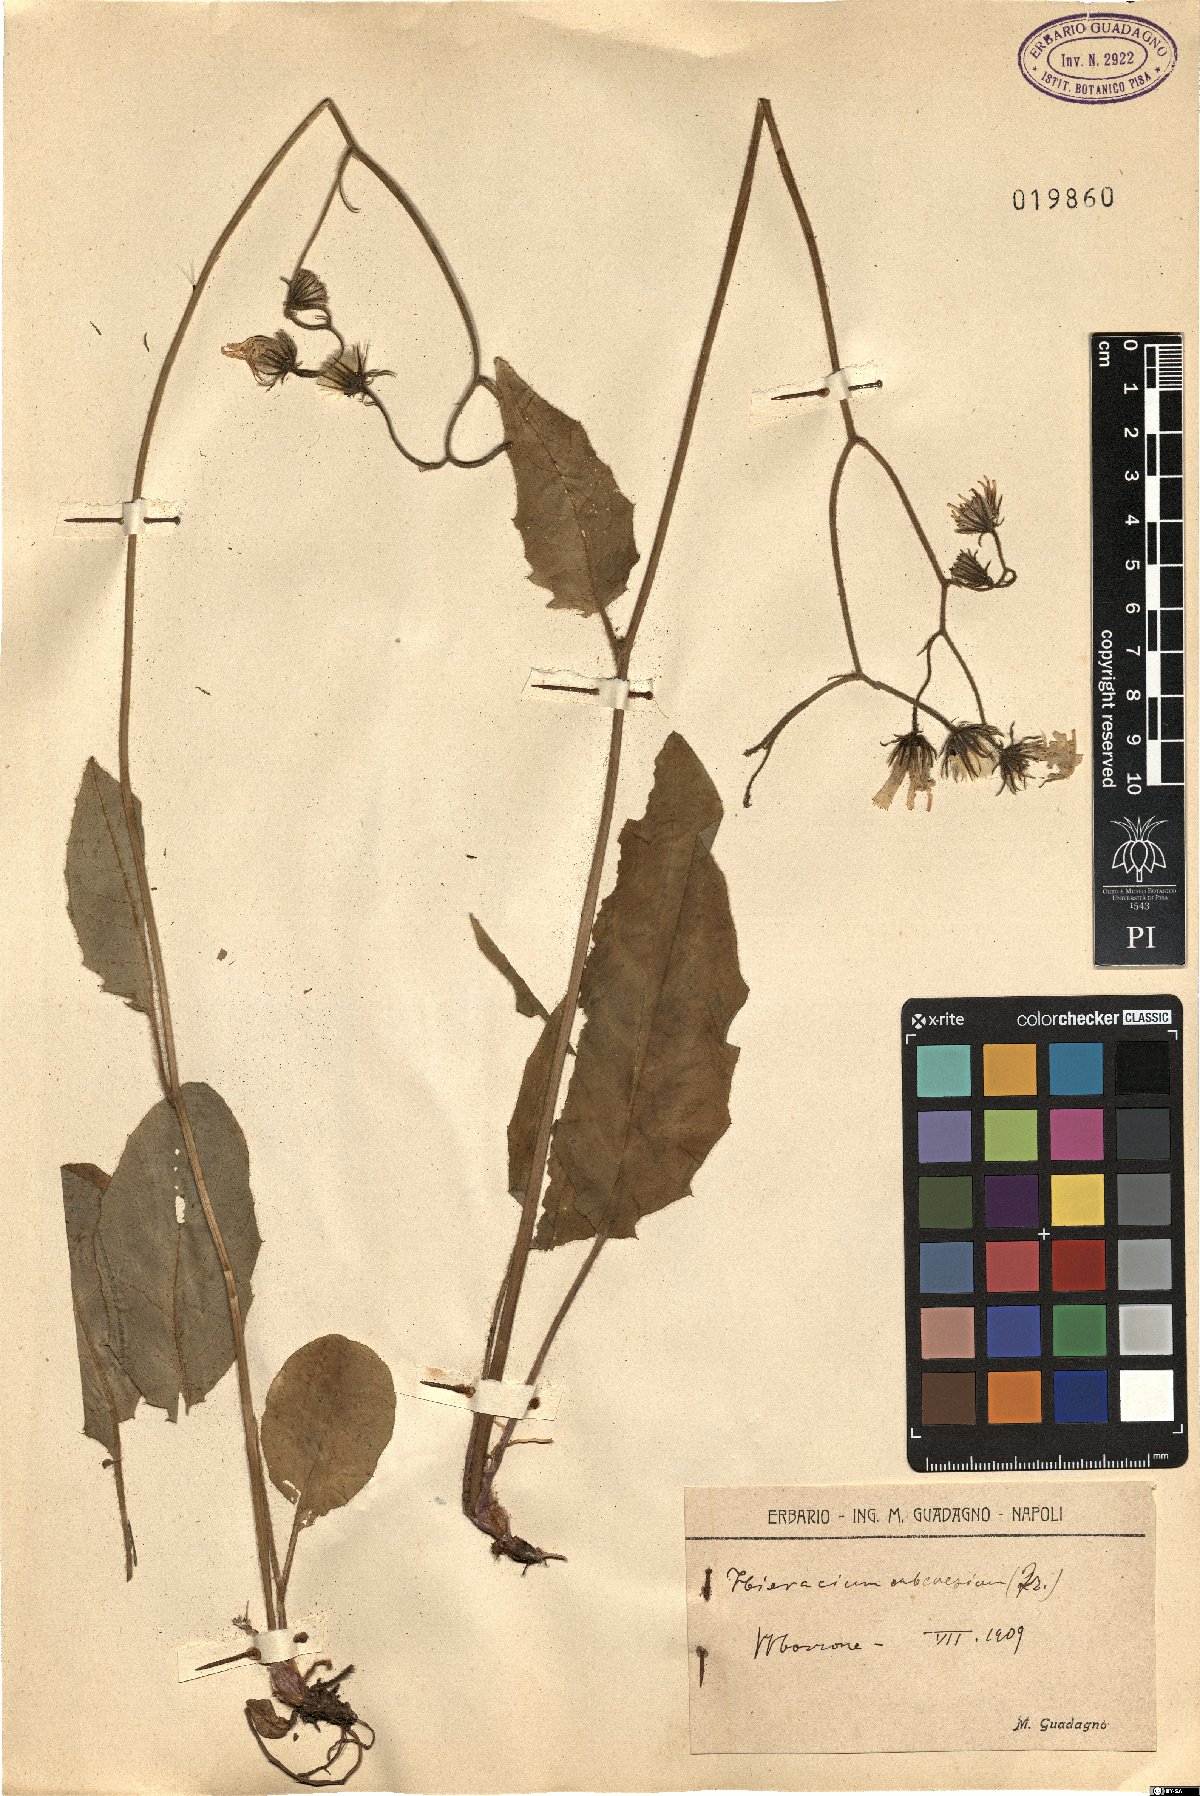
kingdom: Plantae
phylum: Tracheophyta
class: Magnoliopsida
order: Asterales
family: Asteraceae
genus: Hieracium
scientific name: Hieracium subcaesium
